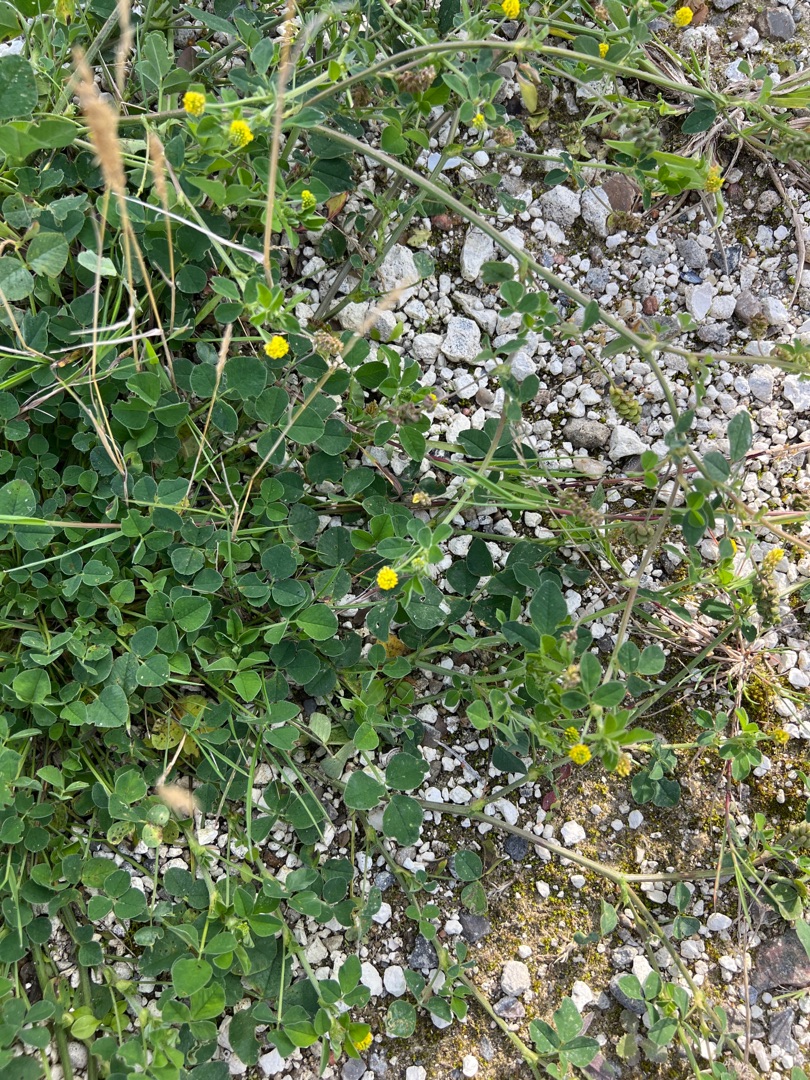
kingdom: Plantae
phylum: Tracheophyta
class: Magnoliopsida
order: Fabales
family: Fabaceae
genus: Medicago
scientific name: Medicago lupulina
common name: Humle-sneglebælg
